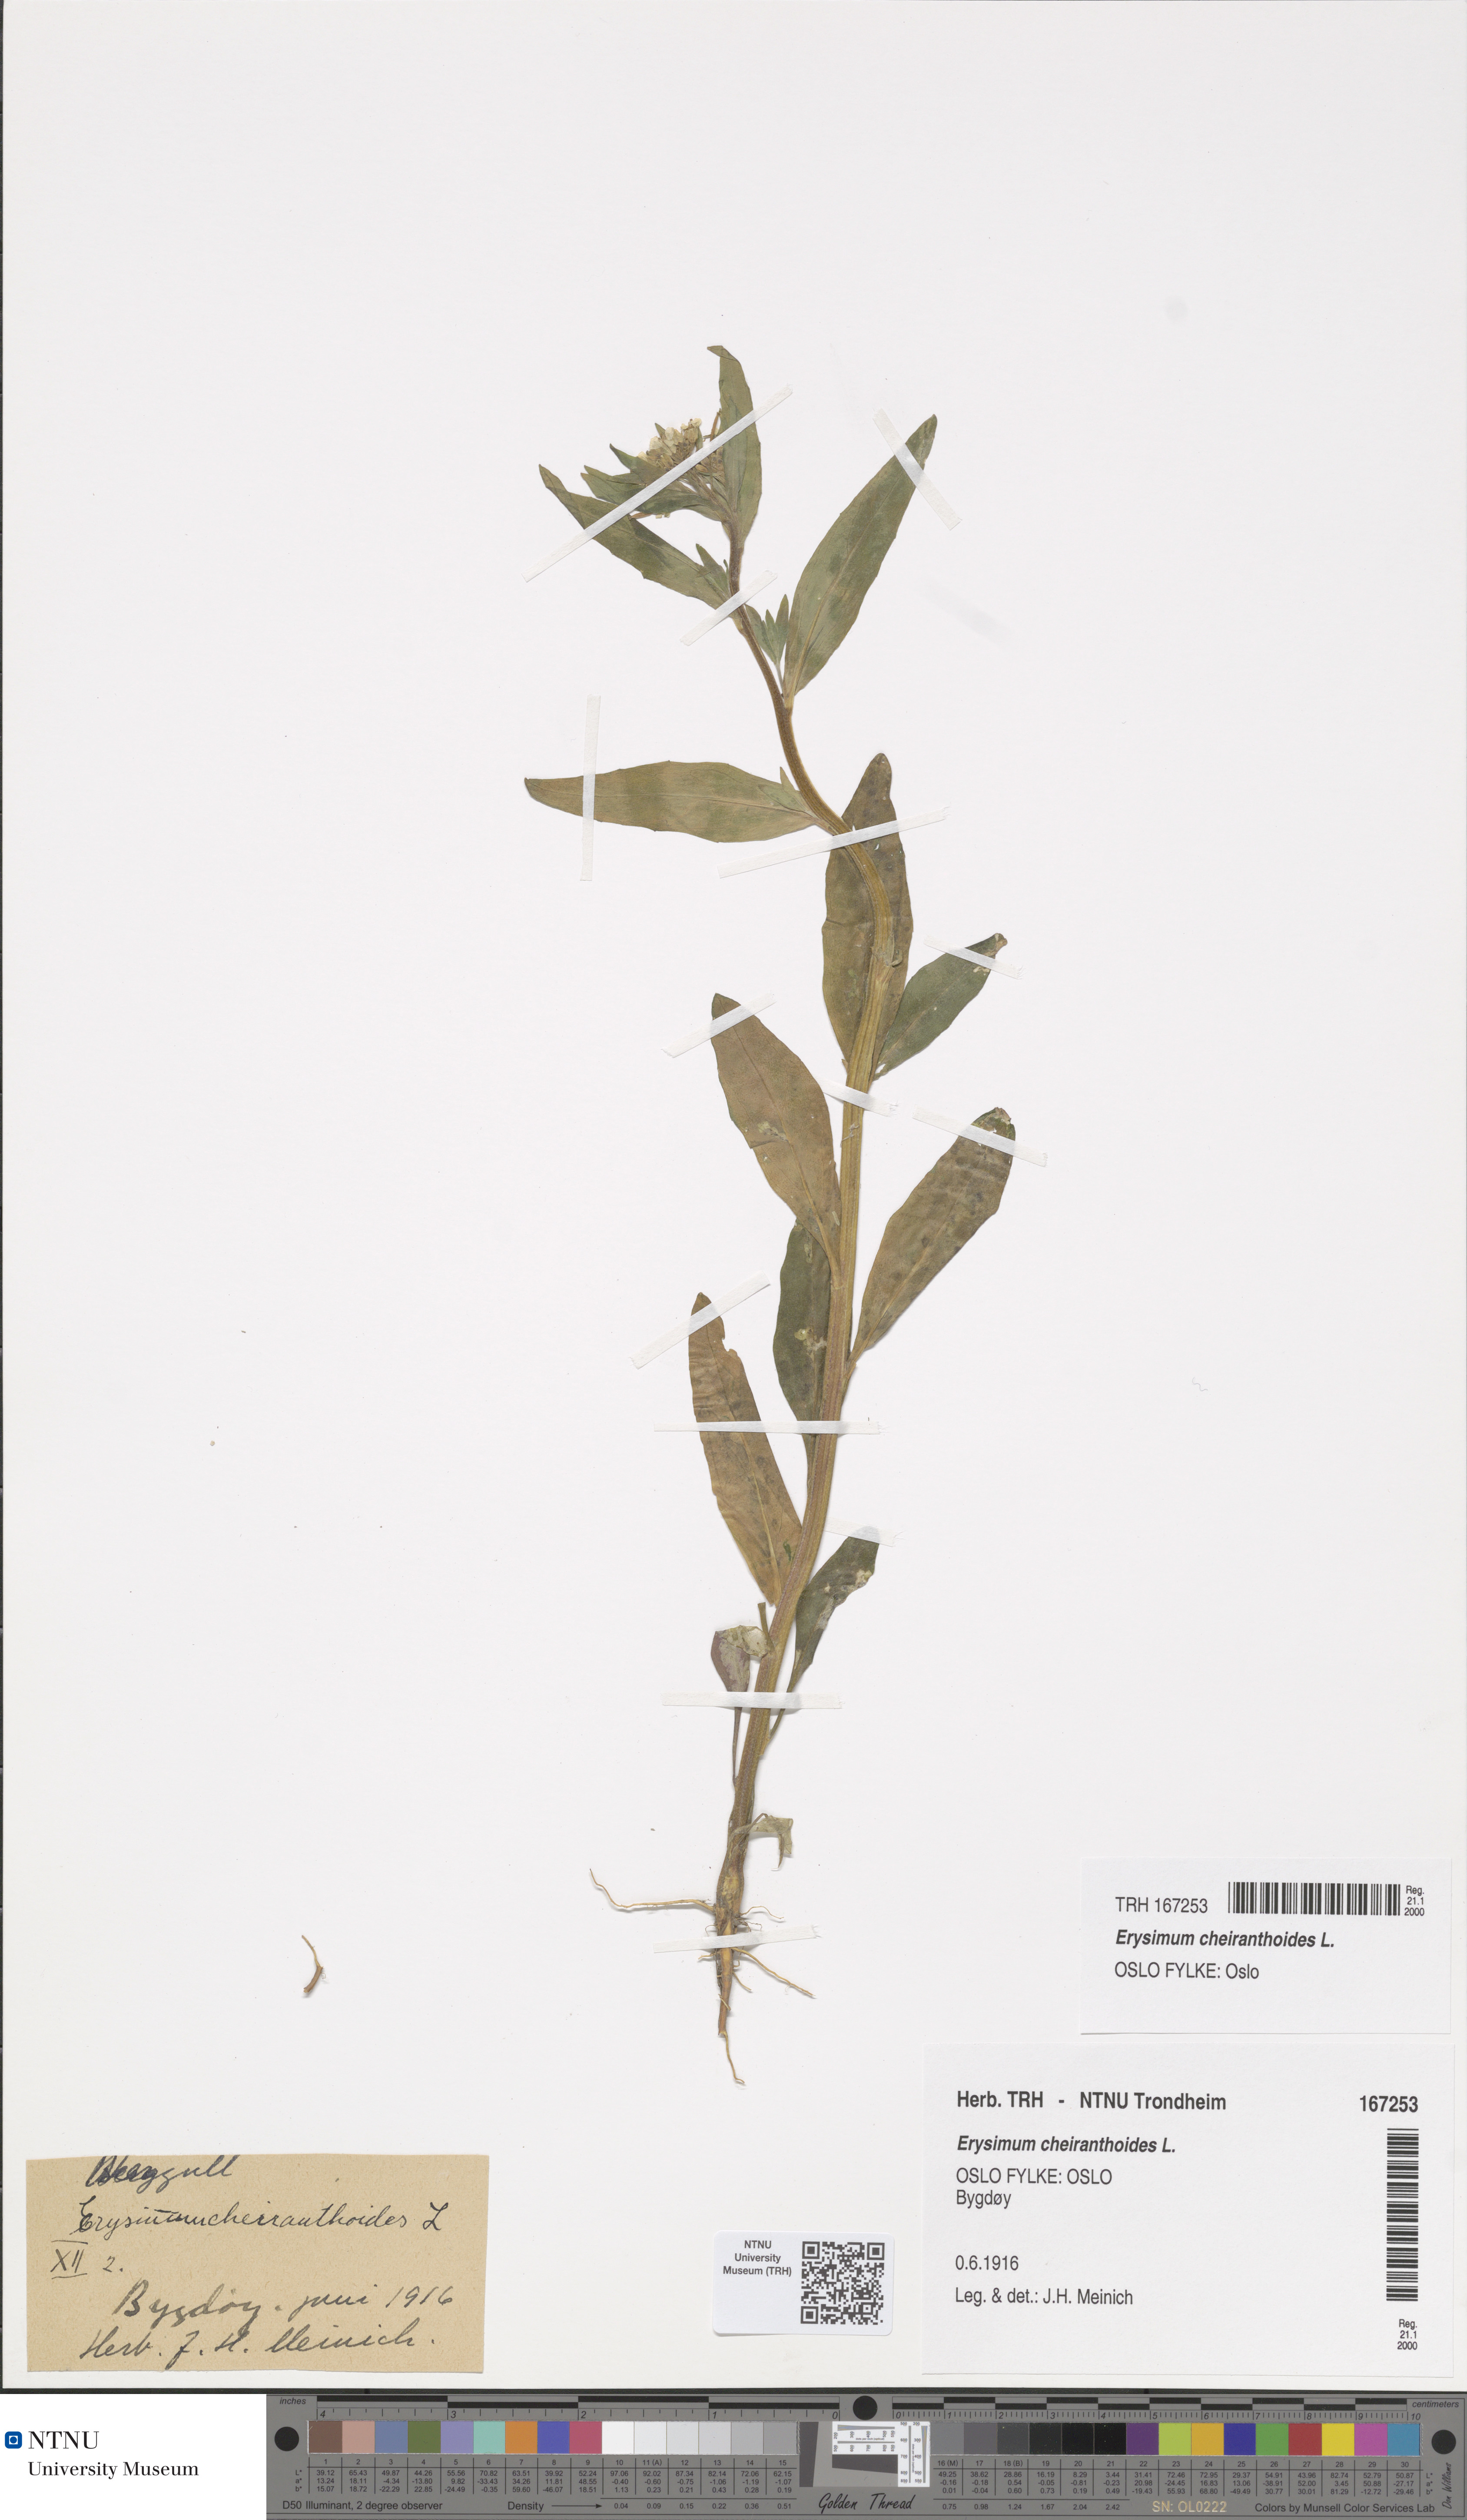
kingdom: Plantae
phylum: Tracheophyta
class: Magnoliopsida
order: Brassicales
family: Brassicaceae
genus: Erysimum
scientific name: Erysimum cheiranthoides
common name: Treacle mustard
